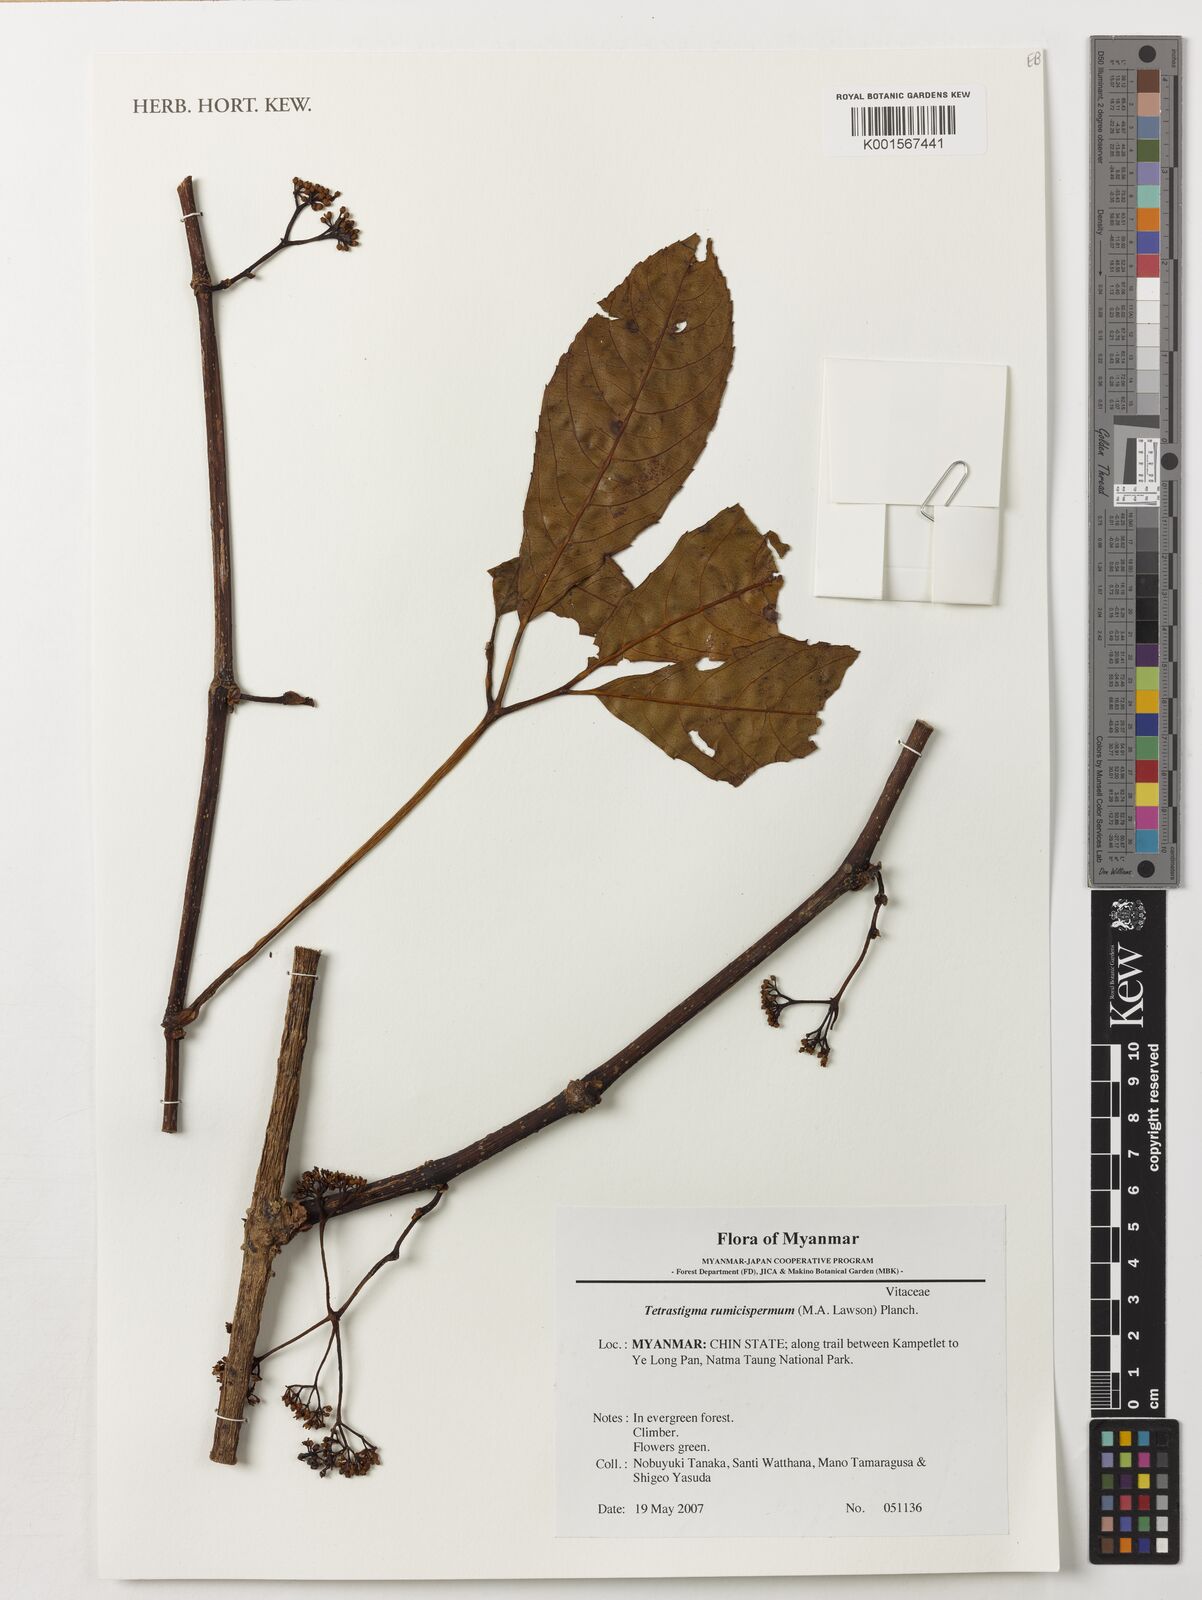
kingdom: Plantae
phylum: Tracheophyta
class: Magnoliopsida
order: Vitales
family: Vitaceae
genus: Tetrastigma
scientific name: Tetrastigma rumicispermum
